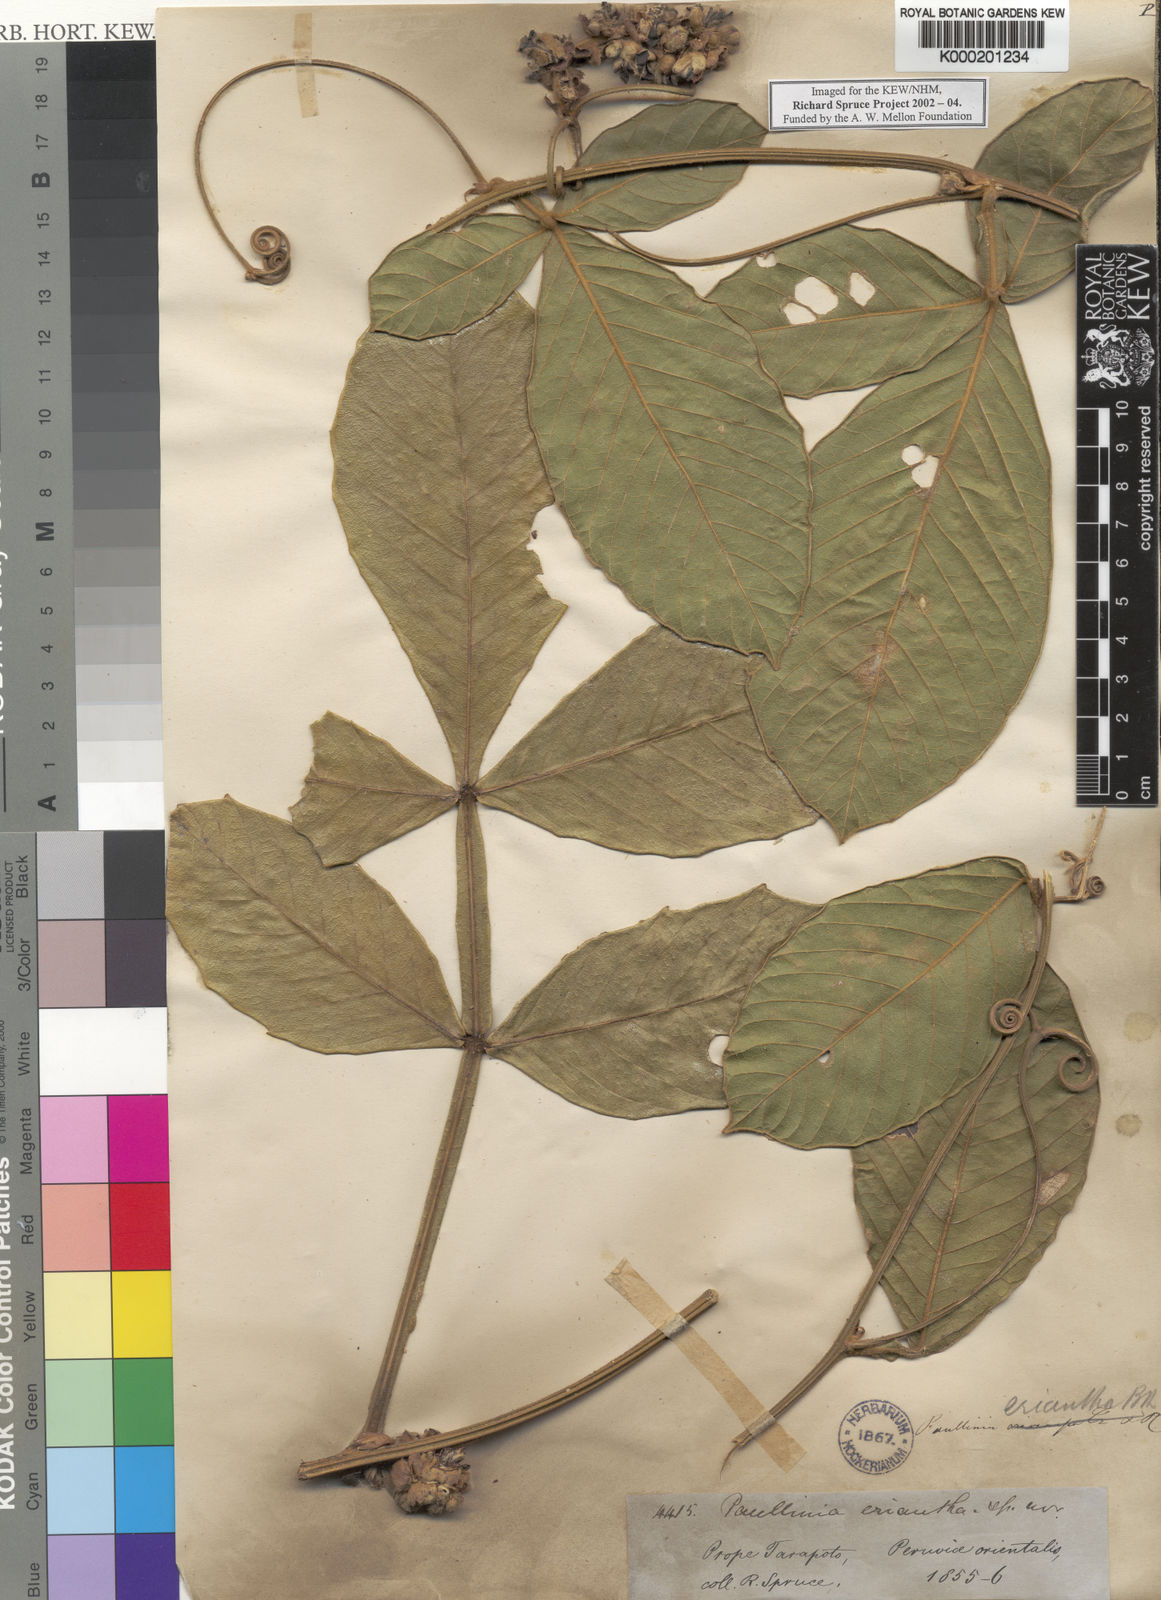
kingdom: Plantae
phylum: Tracheophyta
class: Magnoliopsida
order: Sapindales
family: Sapindaceae
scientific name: Sapindaceae
